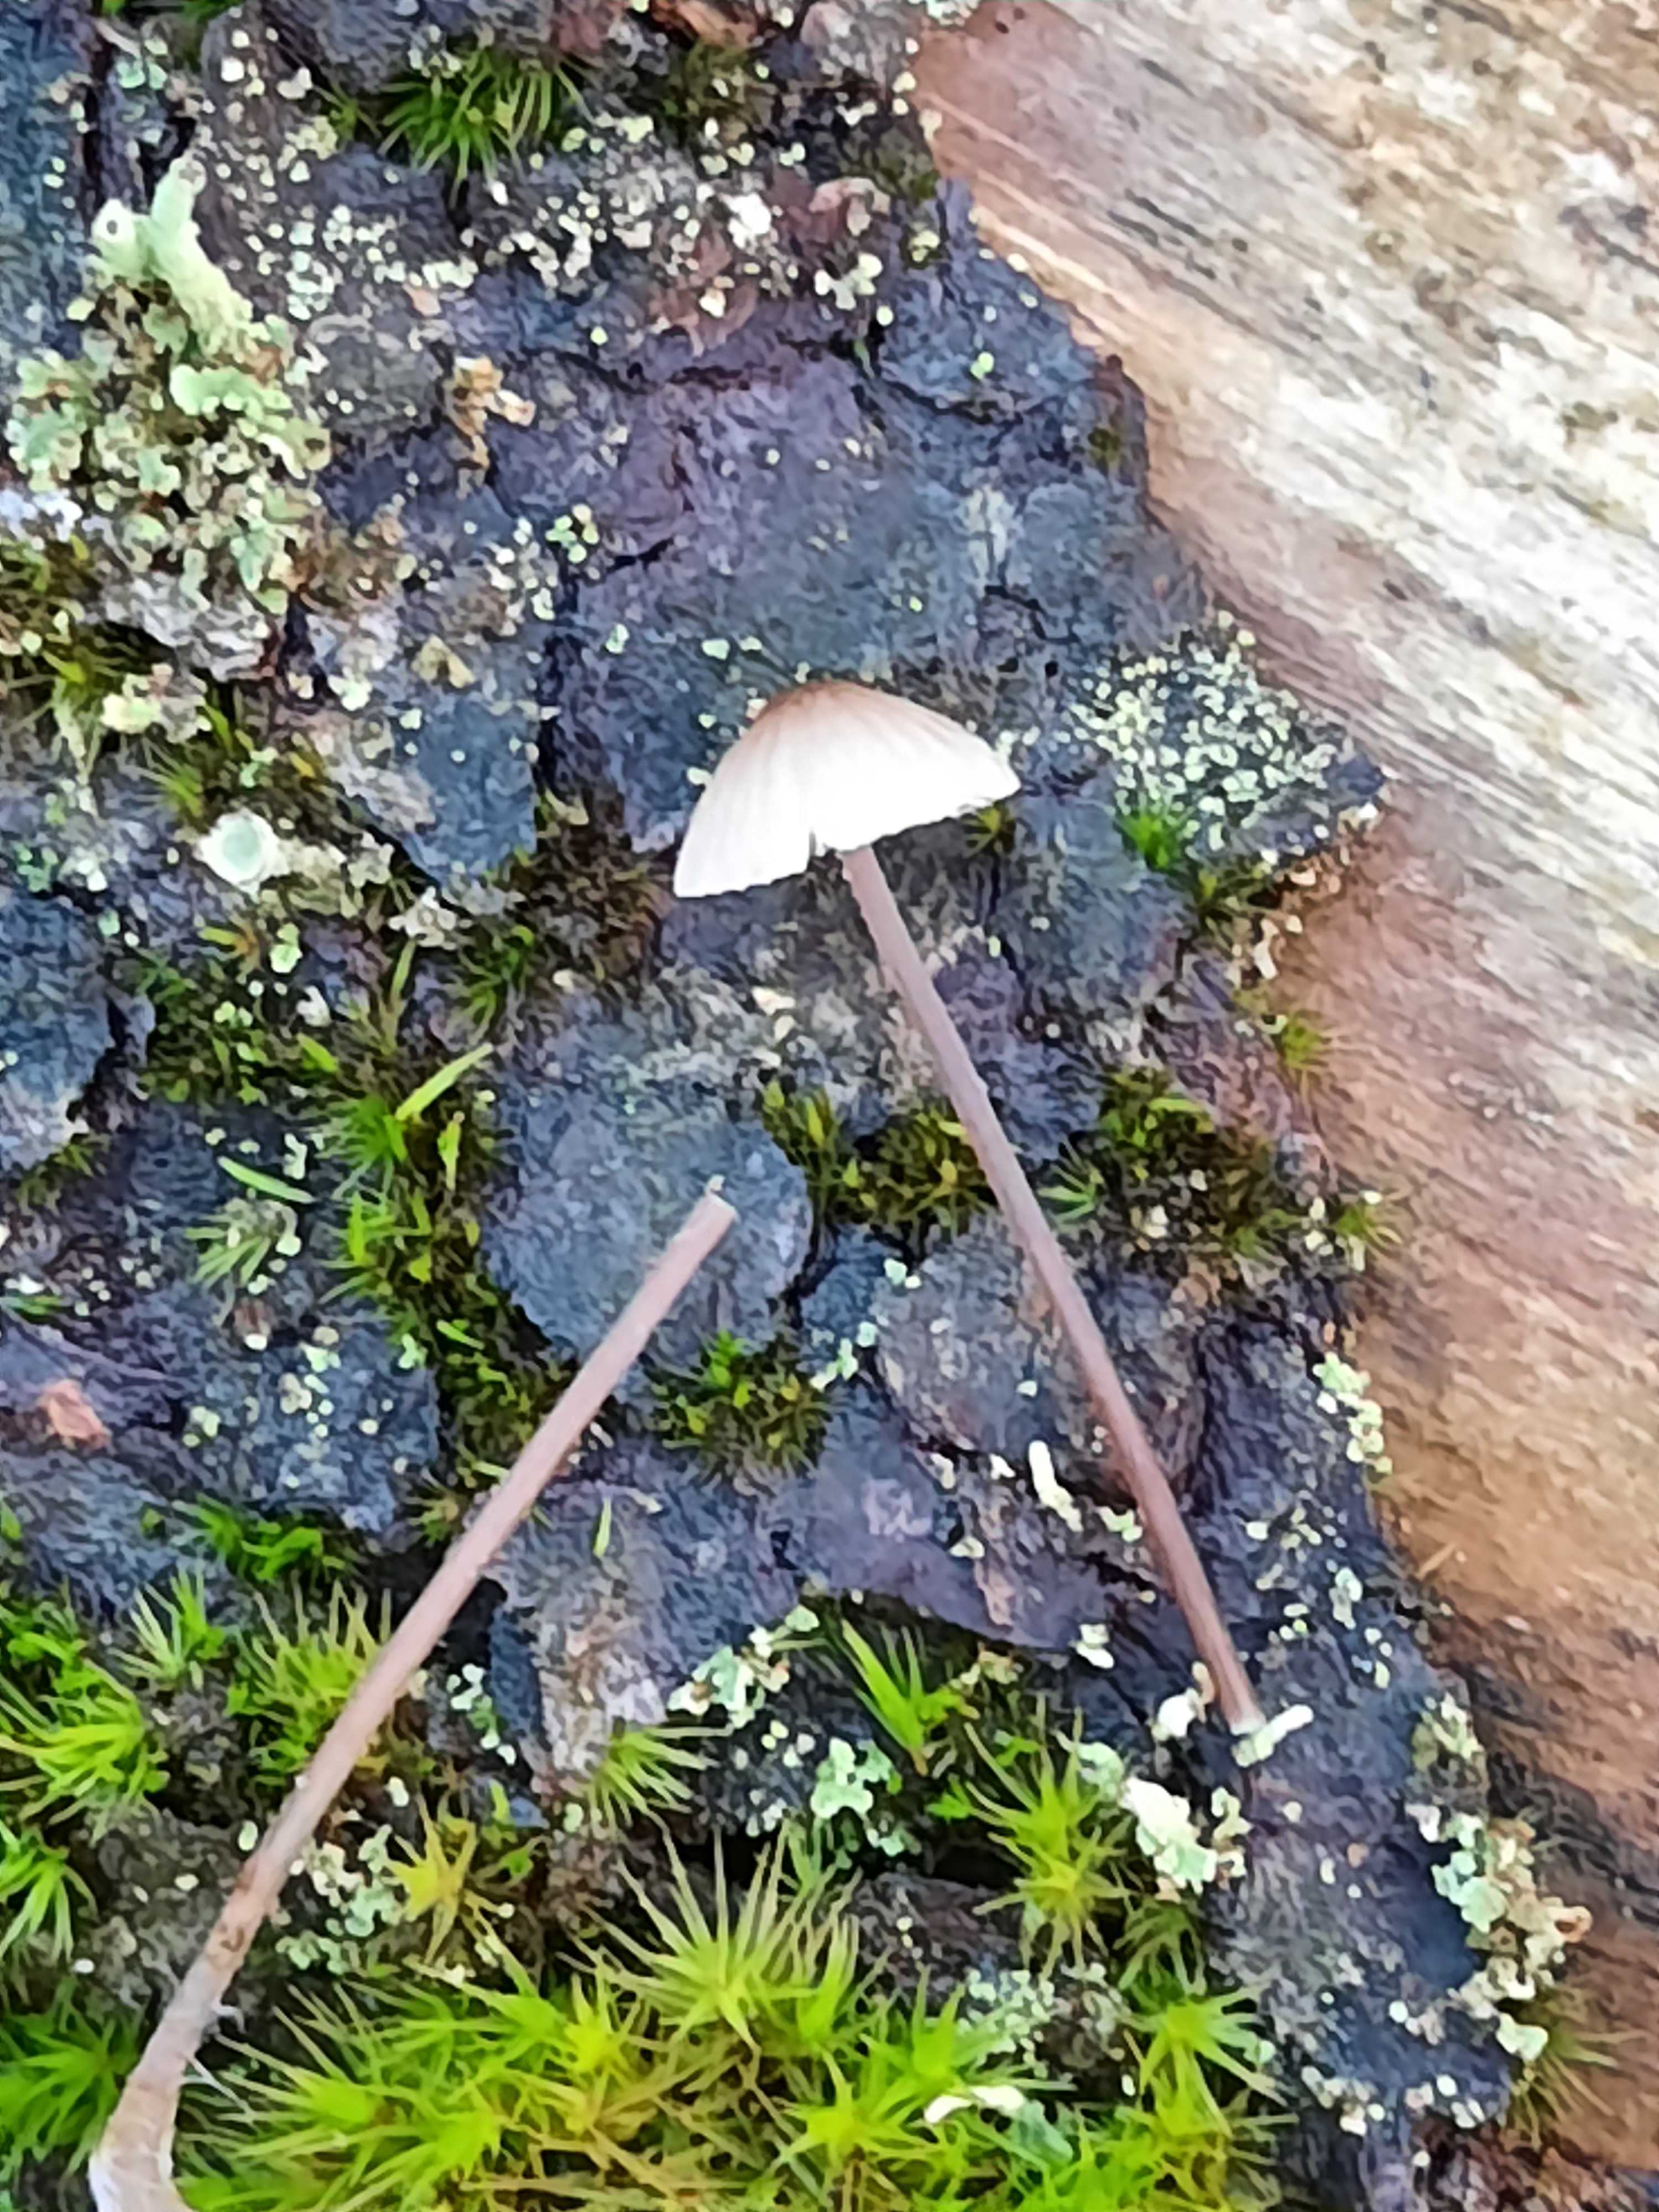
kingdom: Fungi
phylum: Basidiomycota
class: Agaricomycetes
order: Agaricales
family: Mycenaceae
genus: Mycena
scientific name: Mycena galopus
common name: hvidmælket huesvamp
